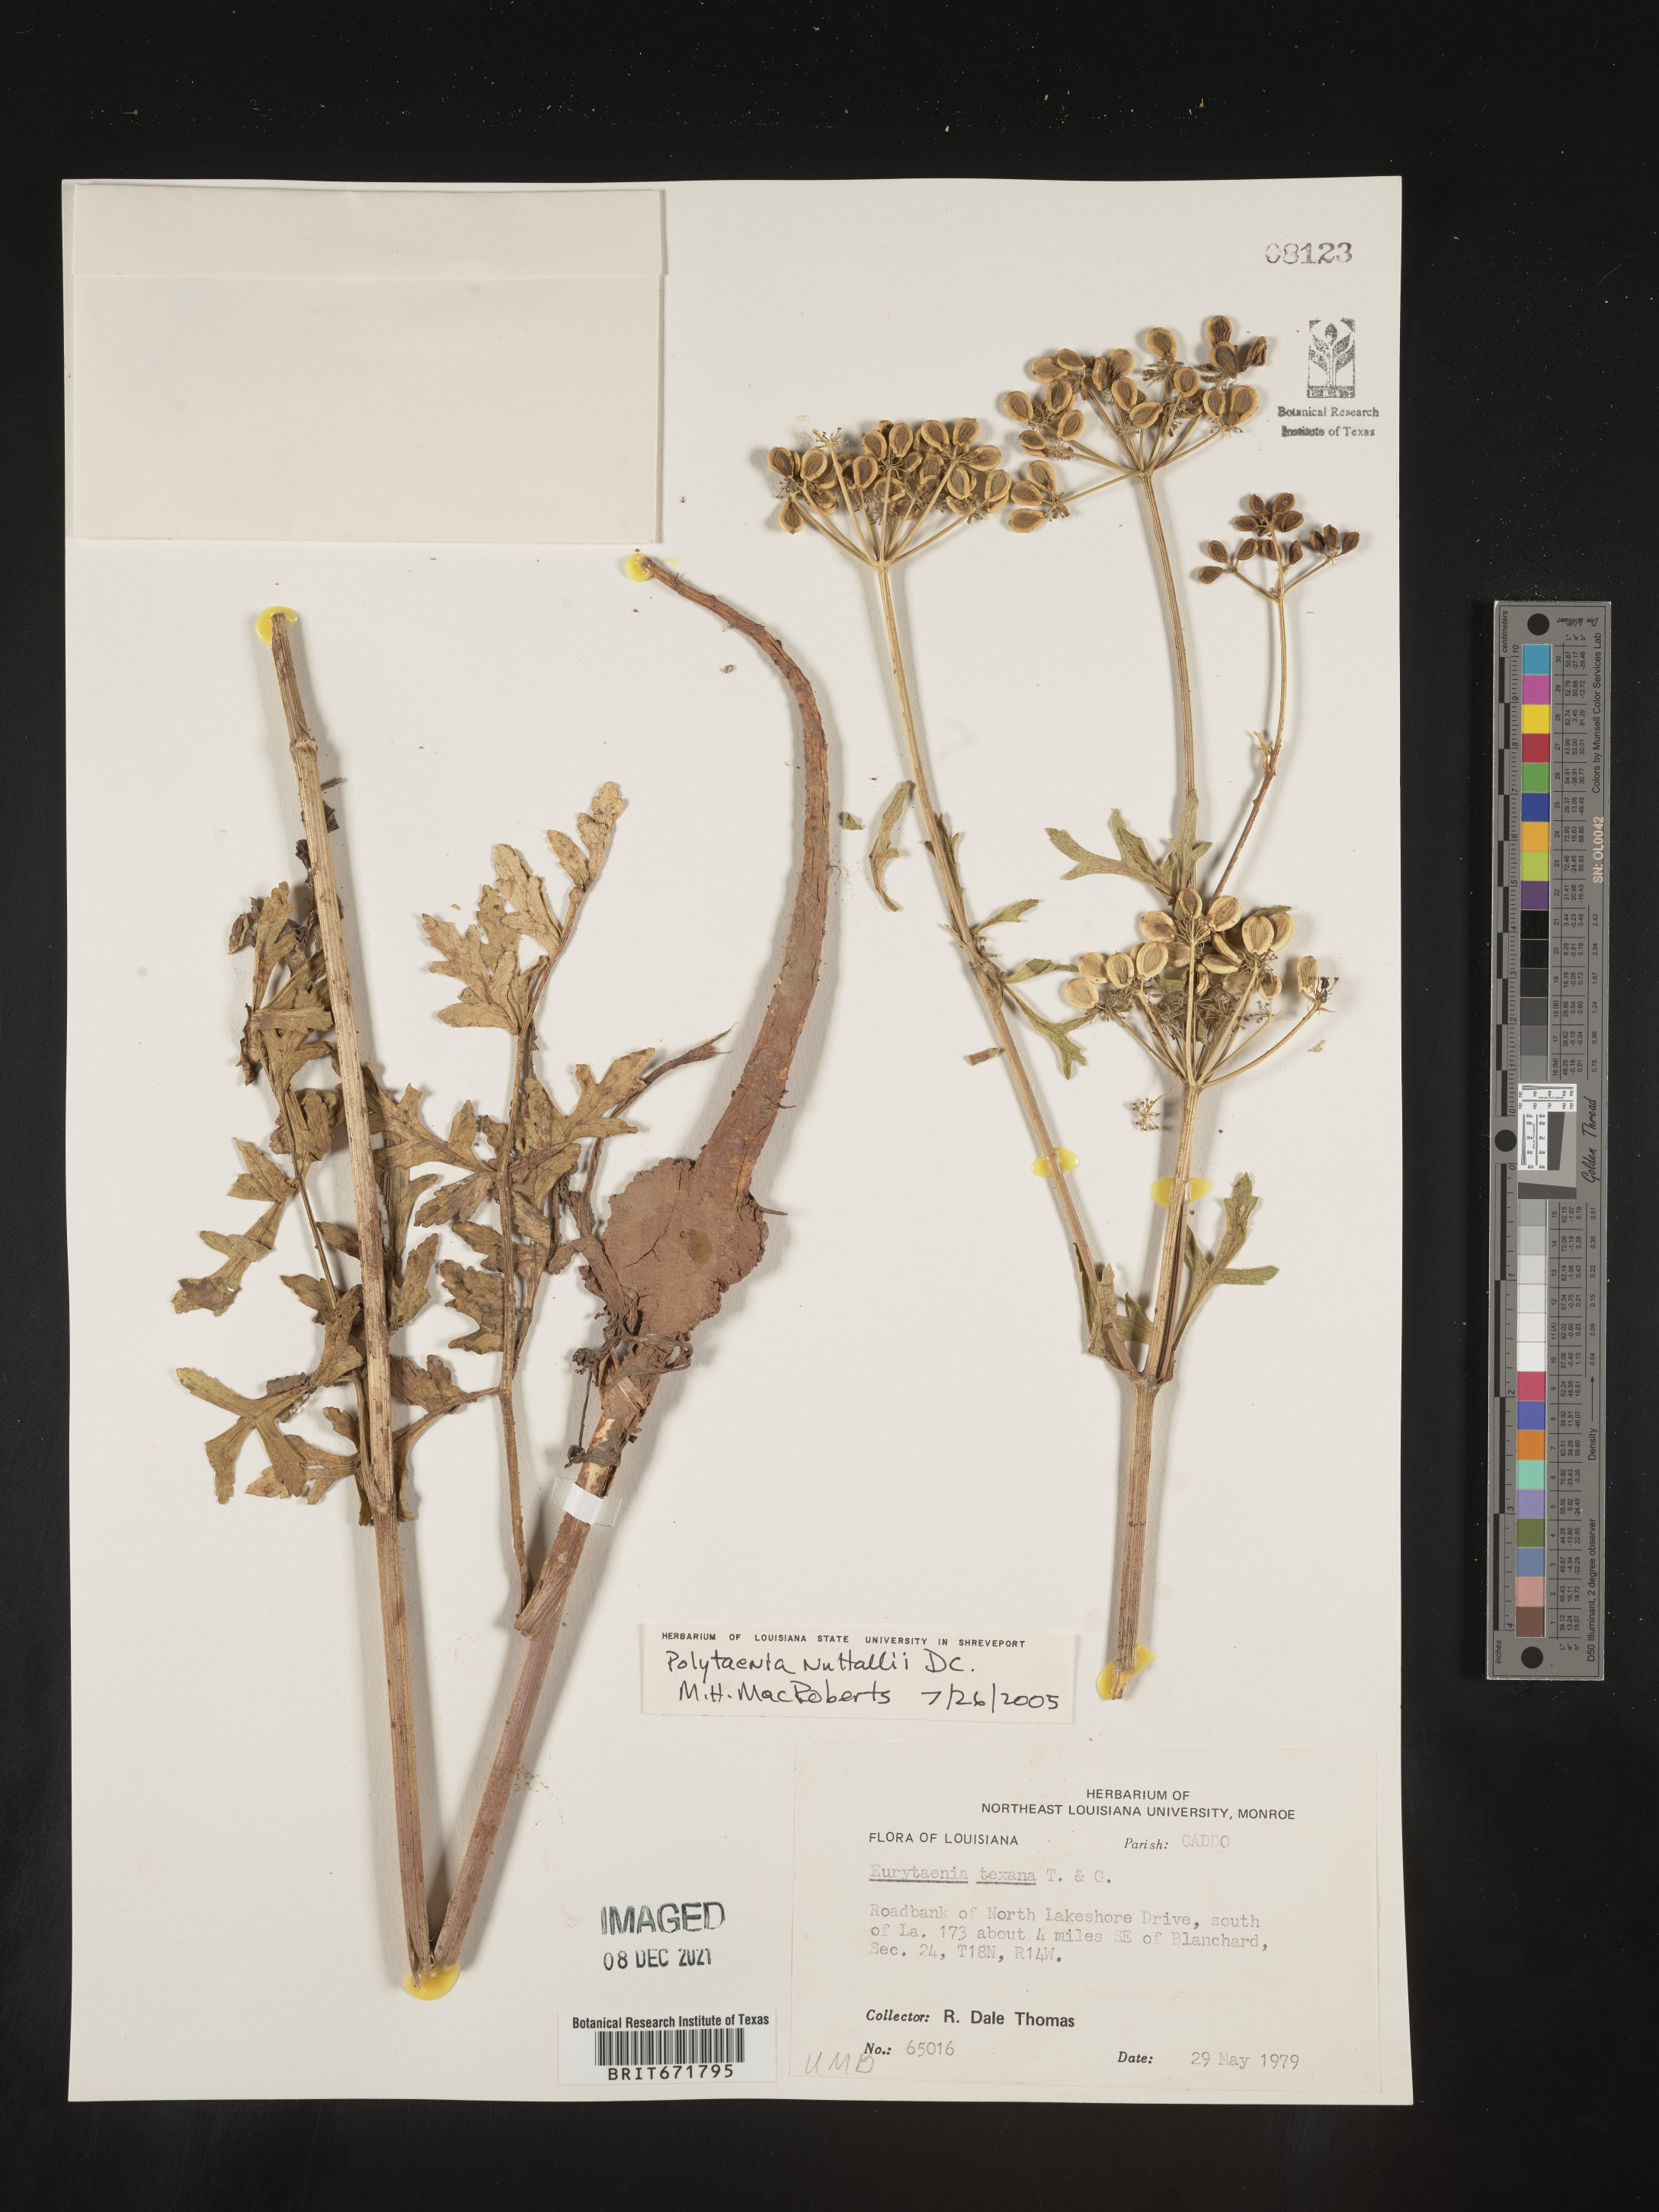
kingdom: Plantae
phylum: Tracheophyta
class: Magnoliopsida
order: Apiales
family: Apiaceae
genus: Polytaenia
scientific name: Polytaenia nuttallii
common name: Prairie-parsley
